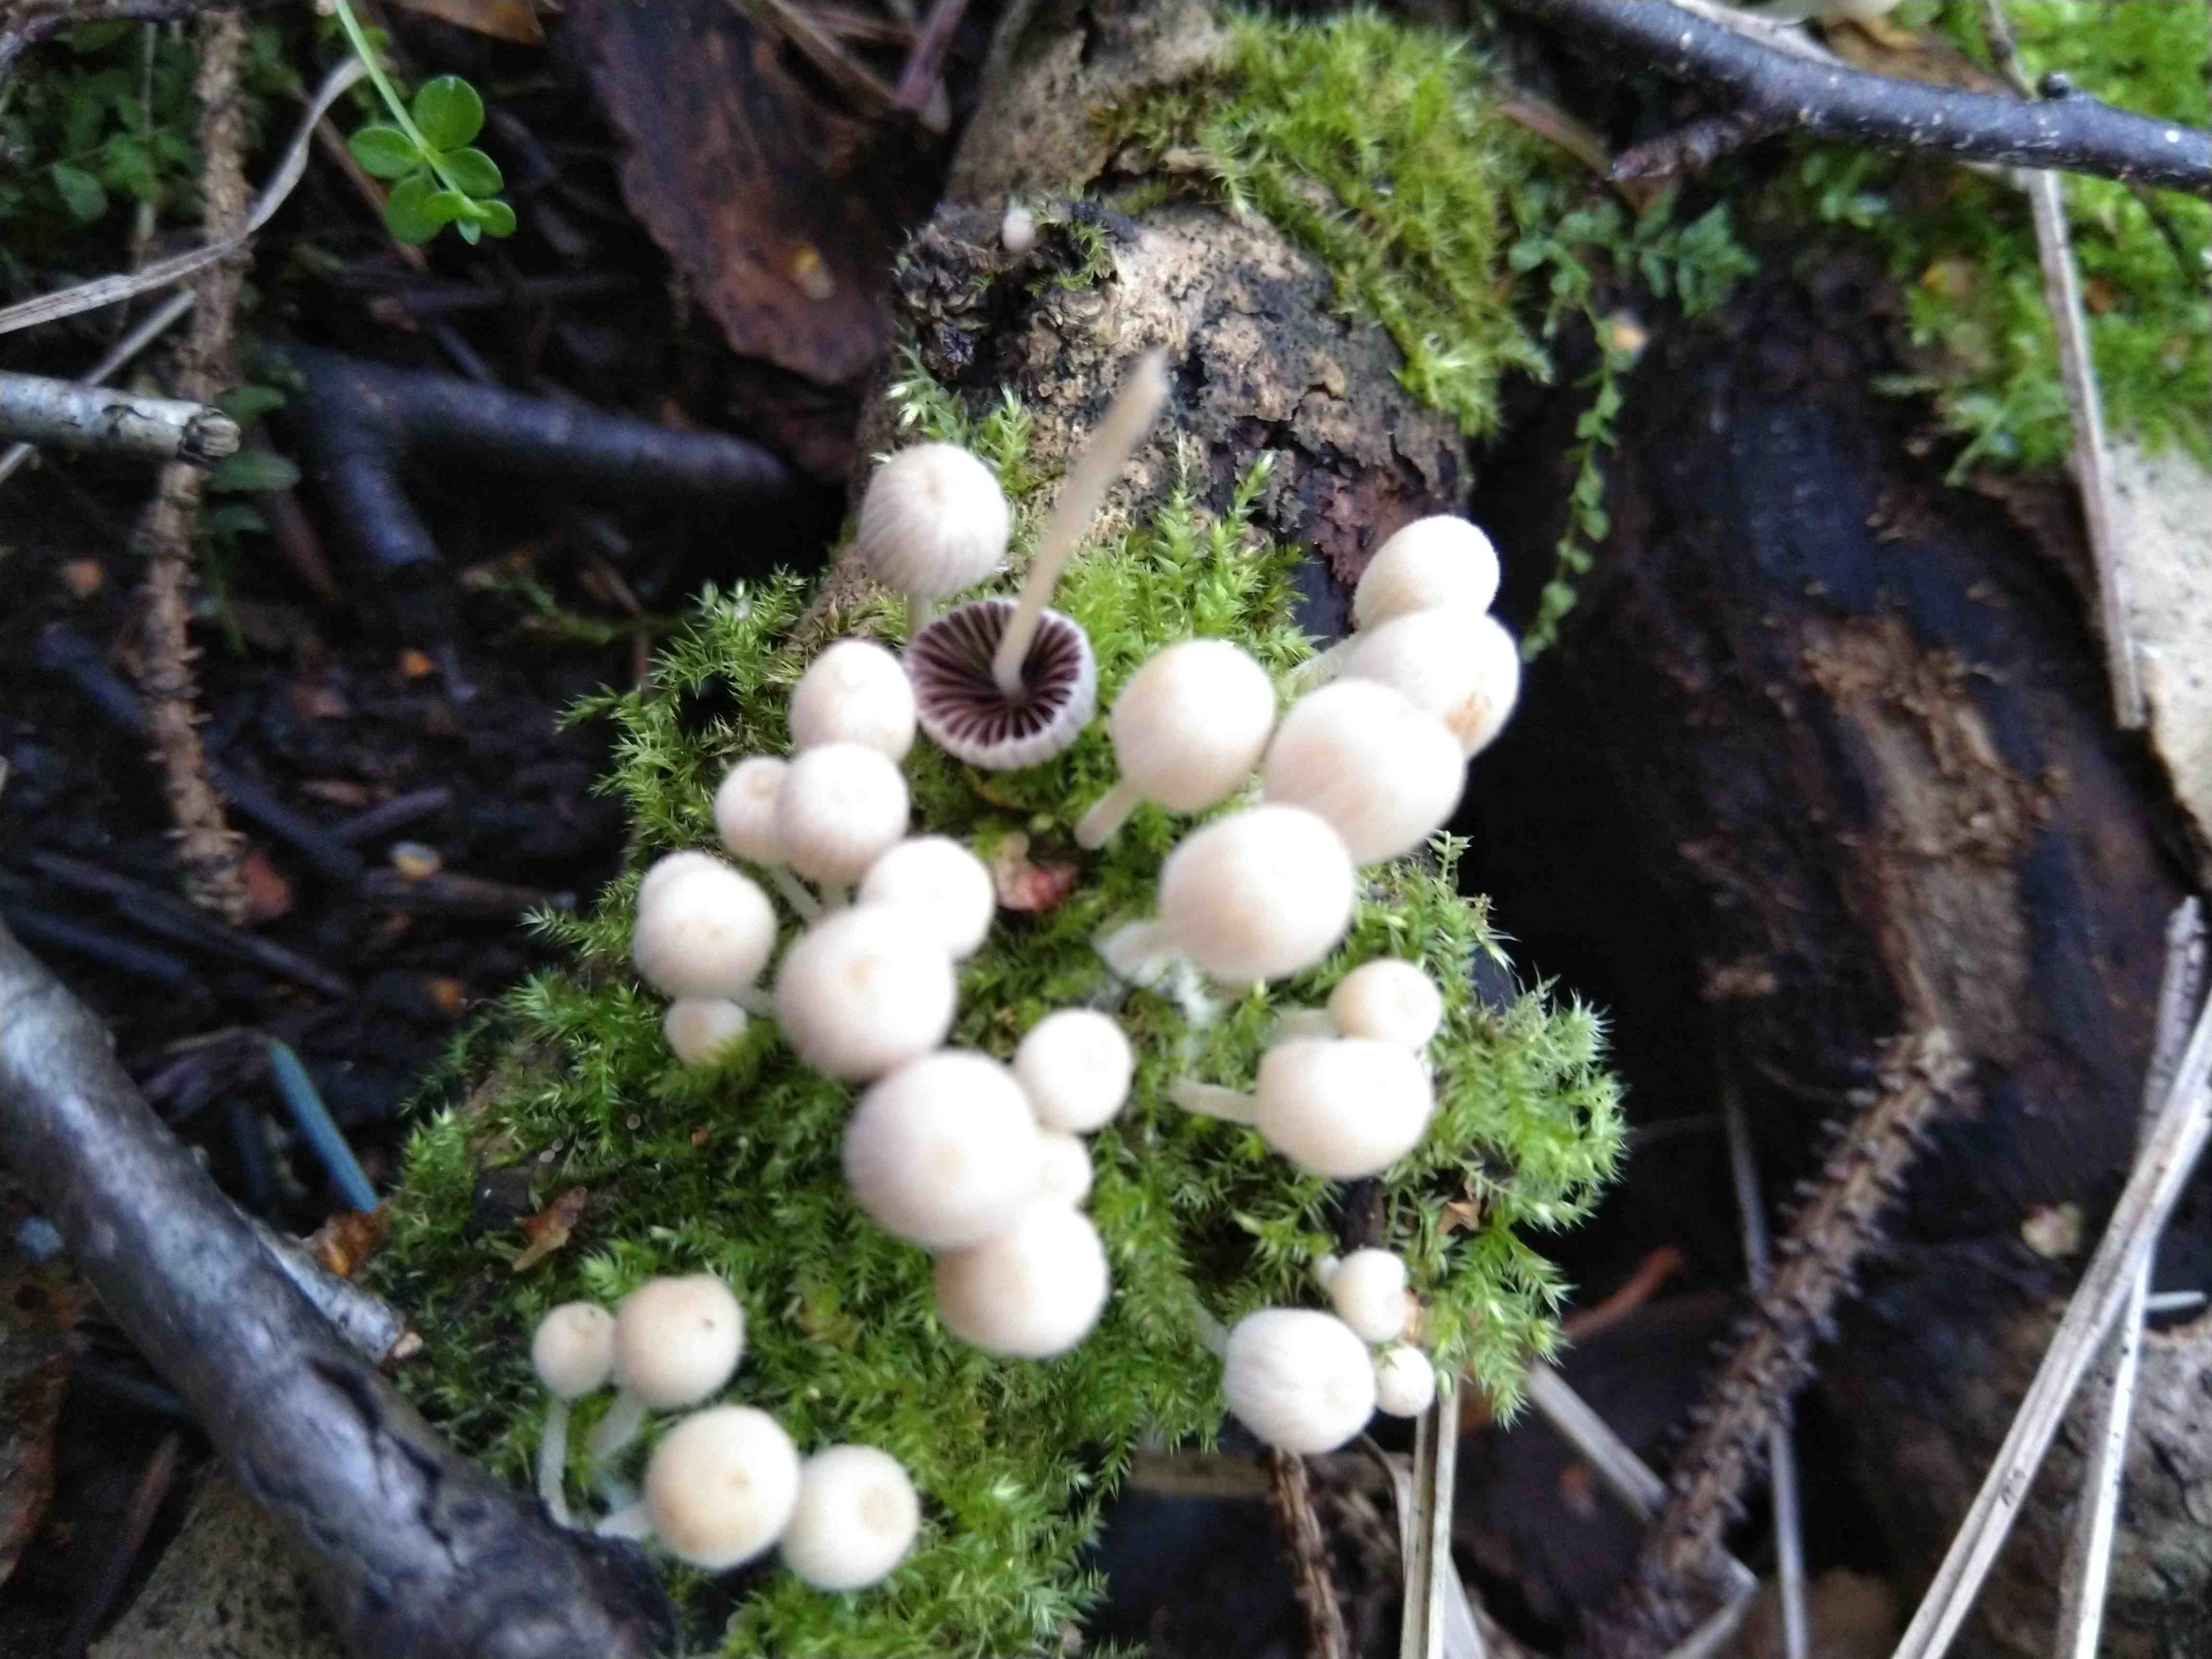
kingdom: Fungi
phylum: Basidiomycota
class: Agaricomycetes
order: Agaricales
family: Psathyrellaceae
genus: Coprinellus
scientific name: Coprinellus disseminatus
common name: bredsået blækhat
